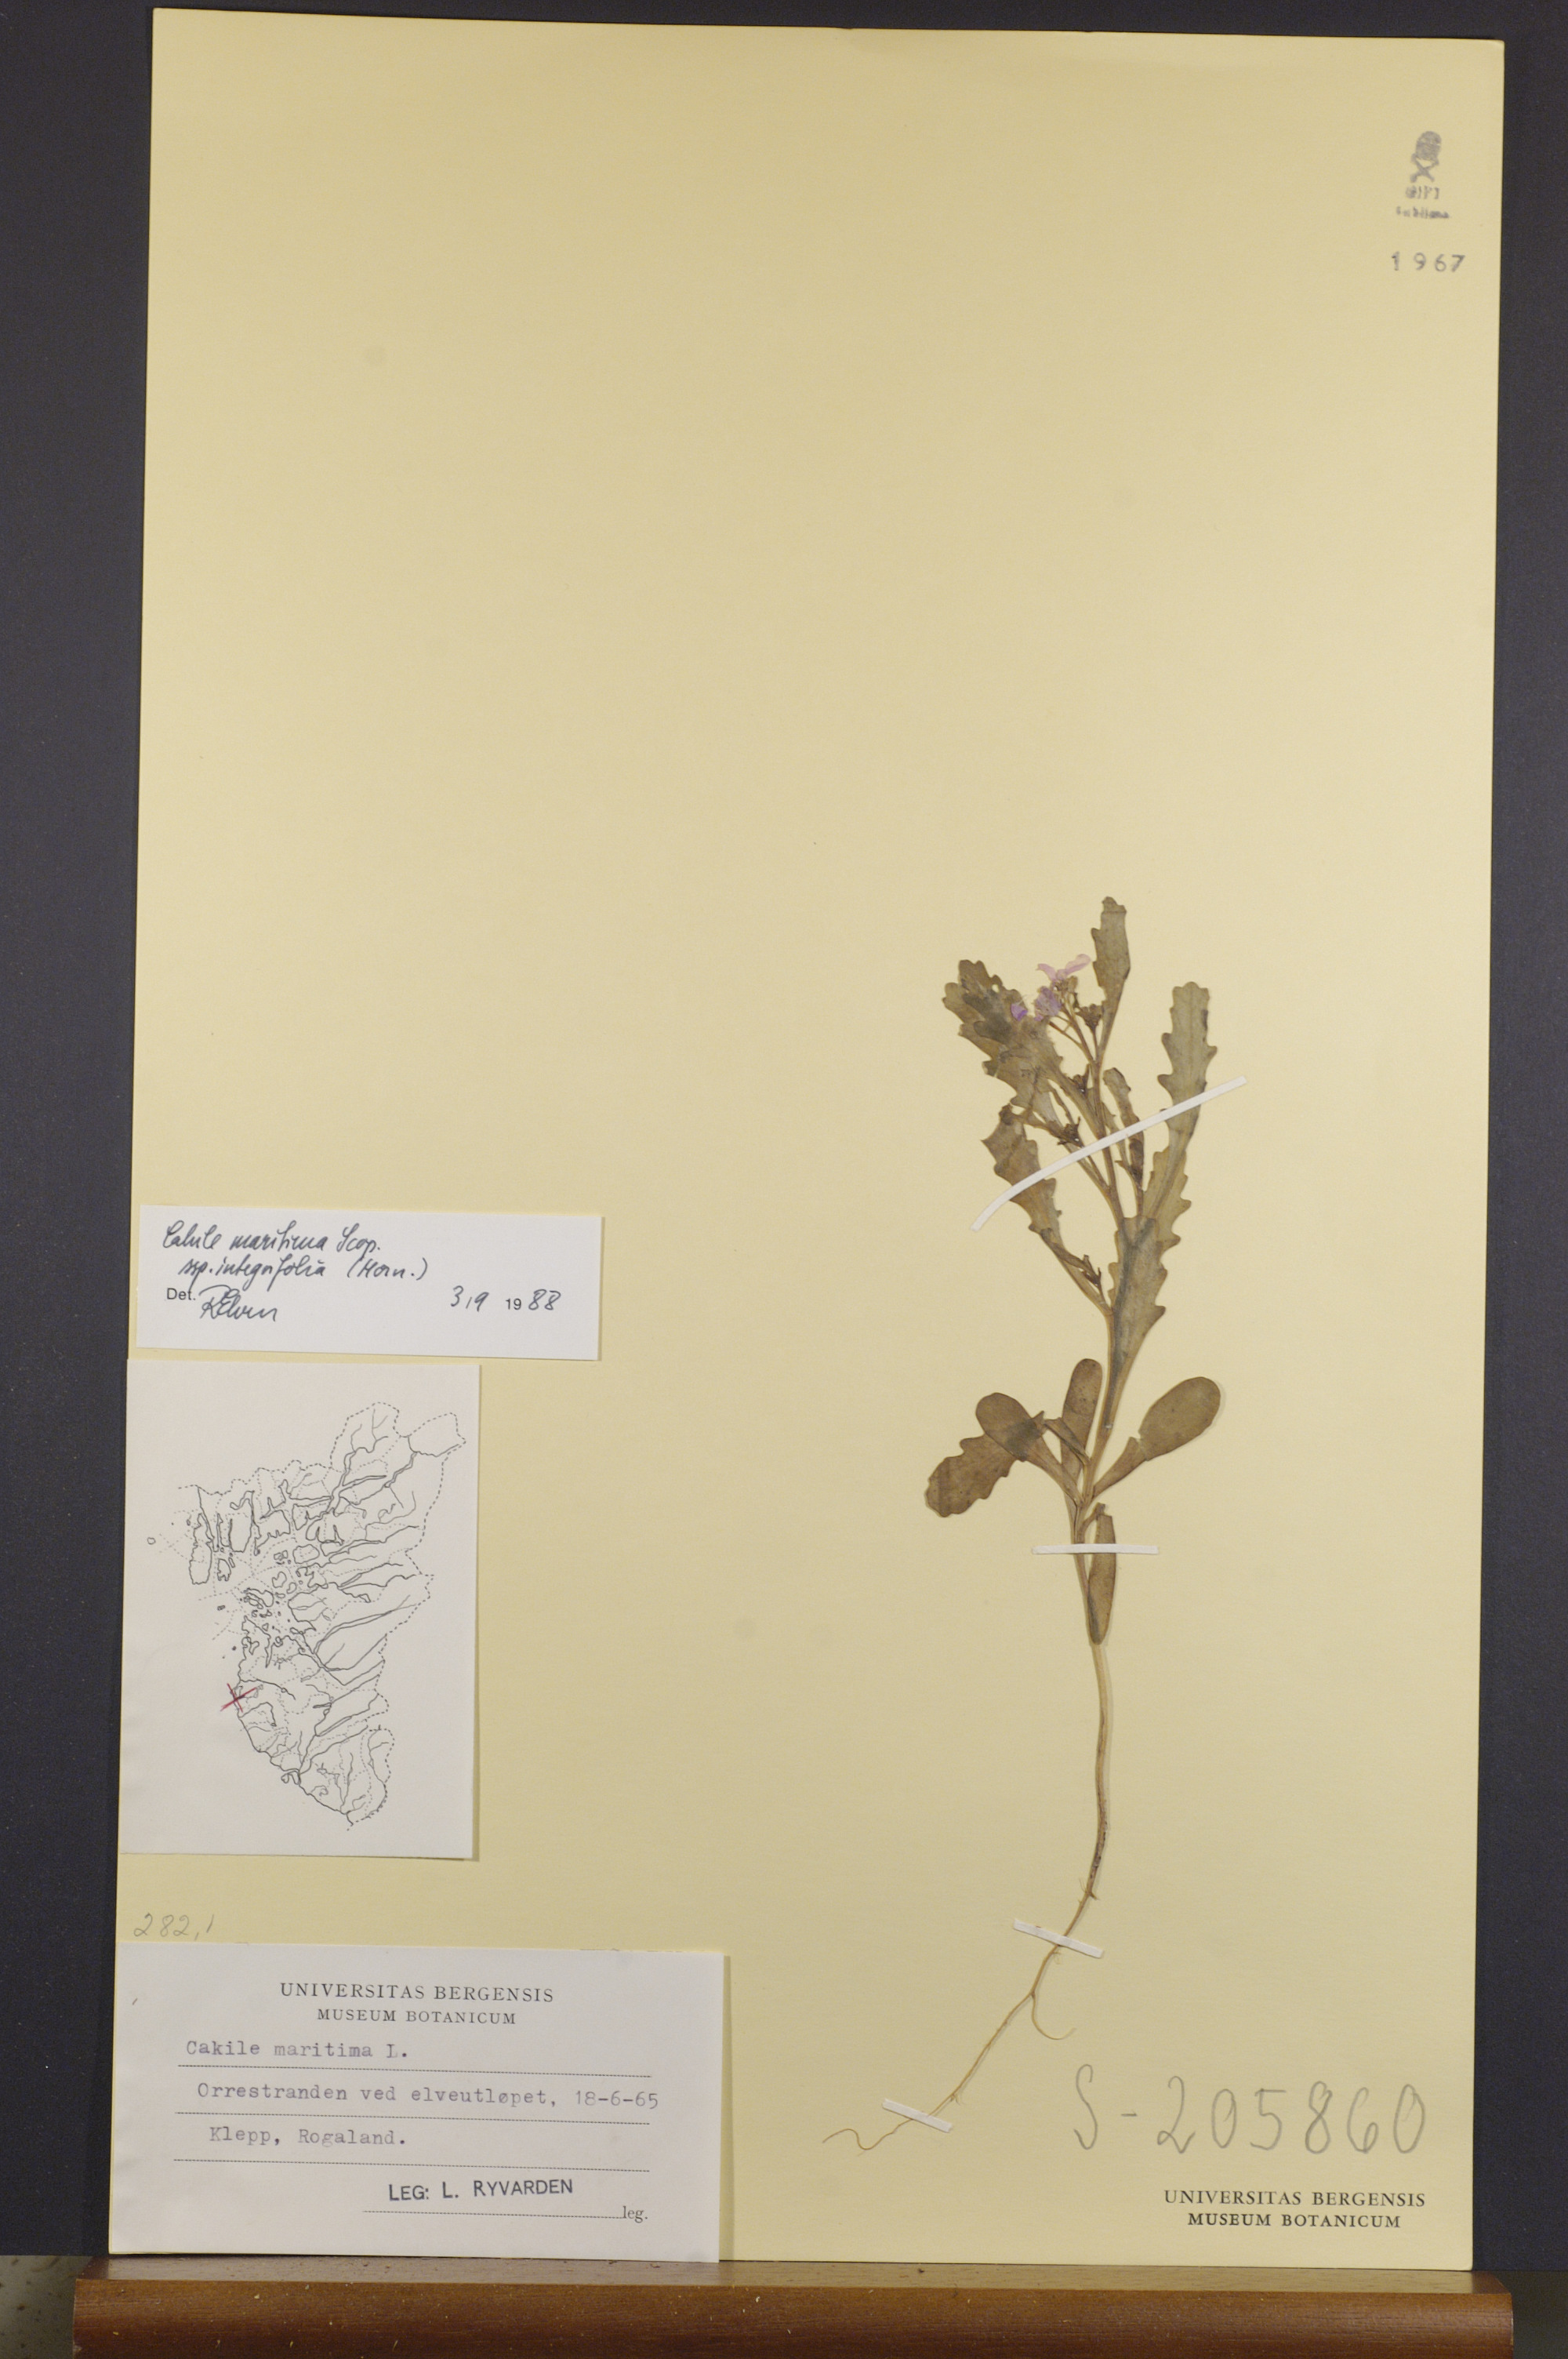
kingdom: Plantae
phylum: Tracheophyta
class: Magnoliopsida
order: Brassicales
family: Brassicaceae
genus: Cakile
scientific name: Cakile maritima
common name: Sea rocket
